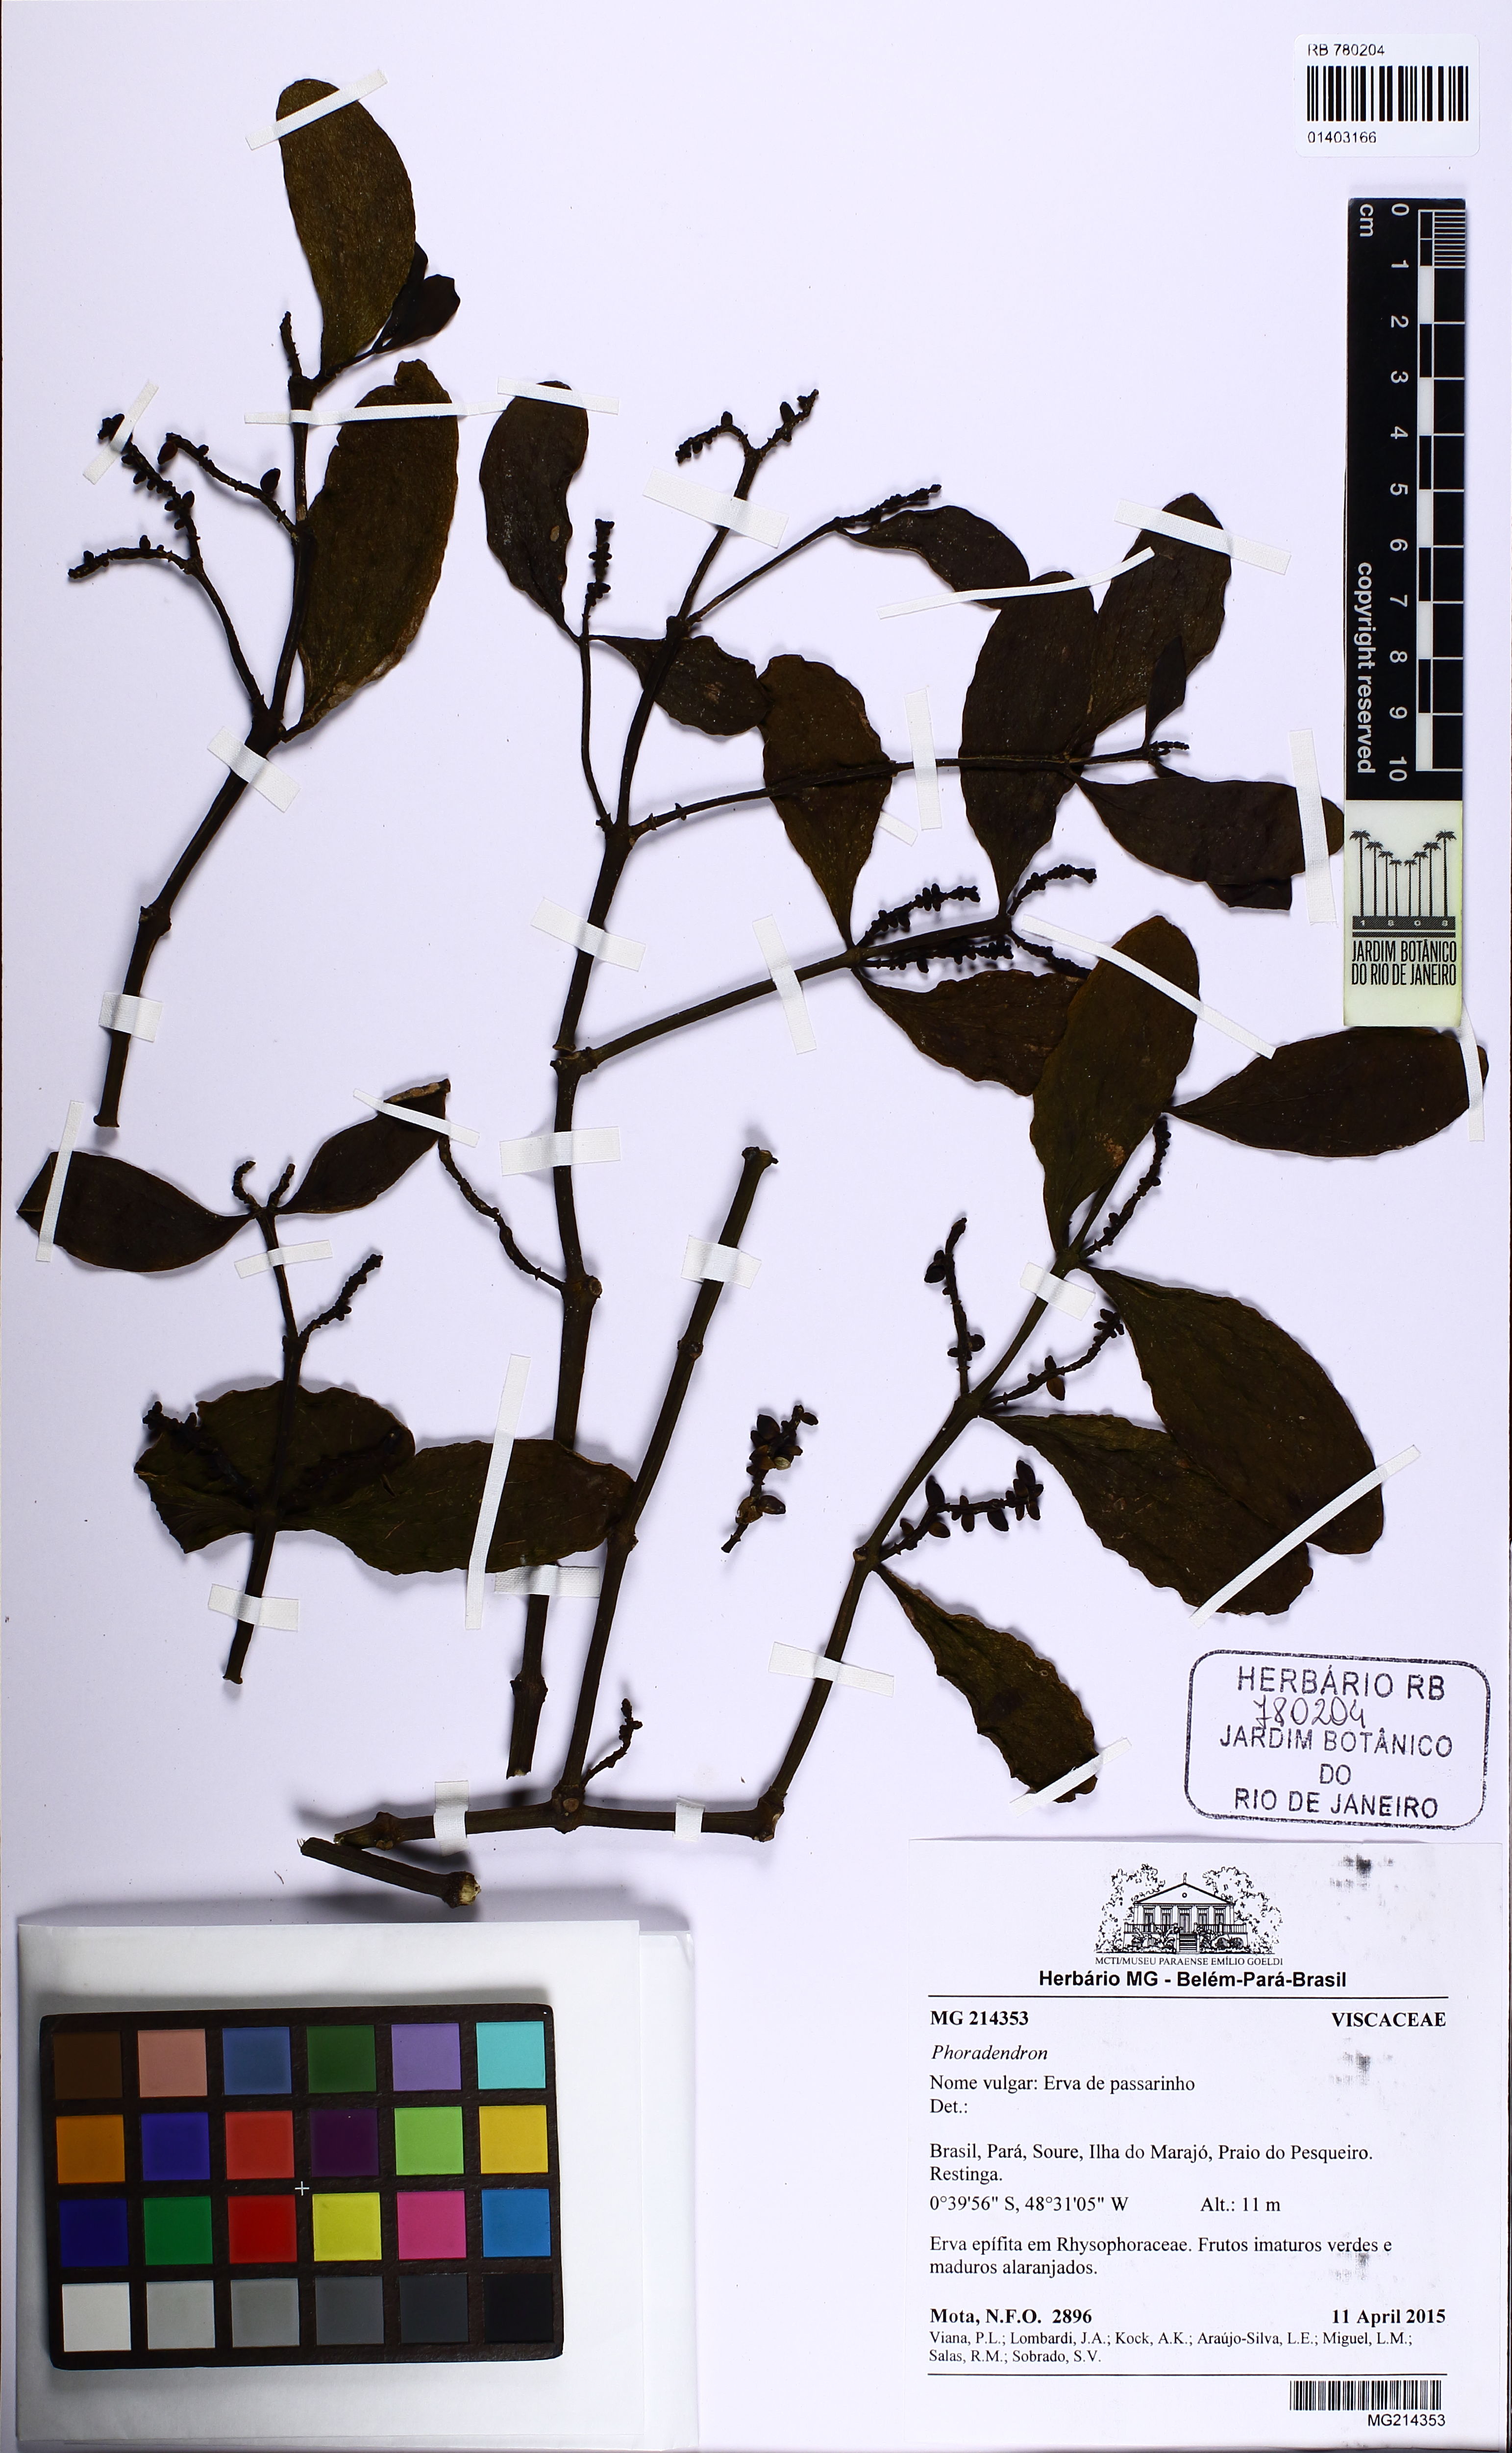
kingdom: Plantae
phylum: Tracheophyta
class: Magnoliopsida
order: Santalales
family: Viscaceae
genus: Phoradendron
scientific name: Phoradendron quadrangulare
